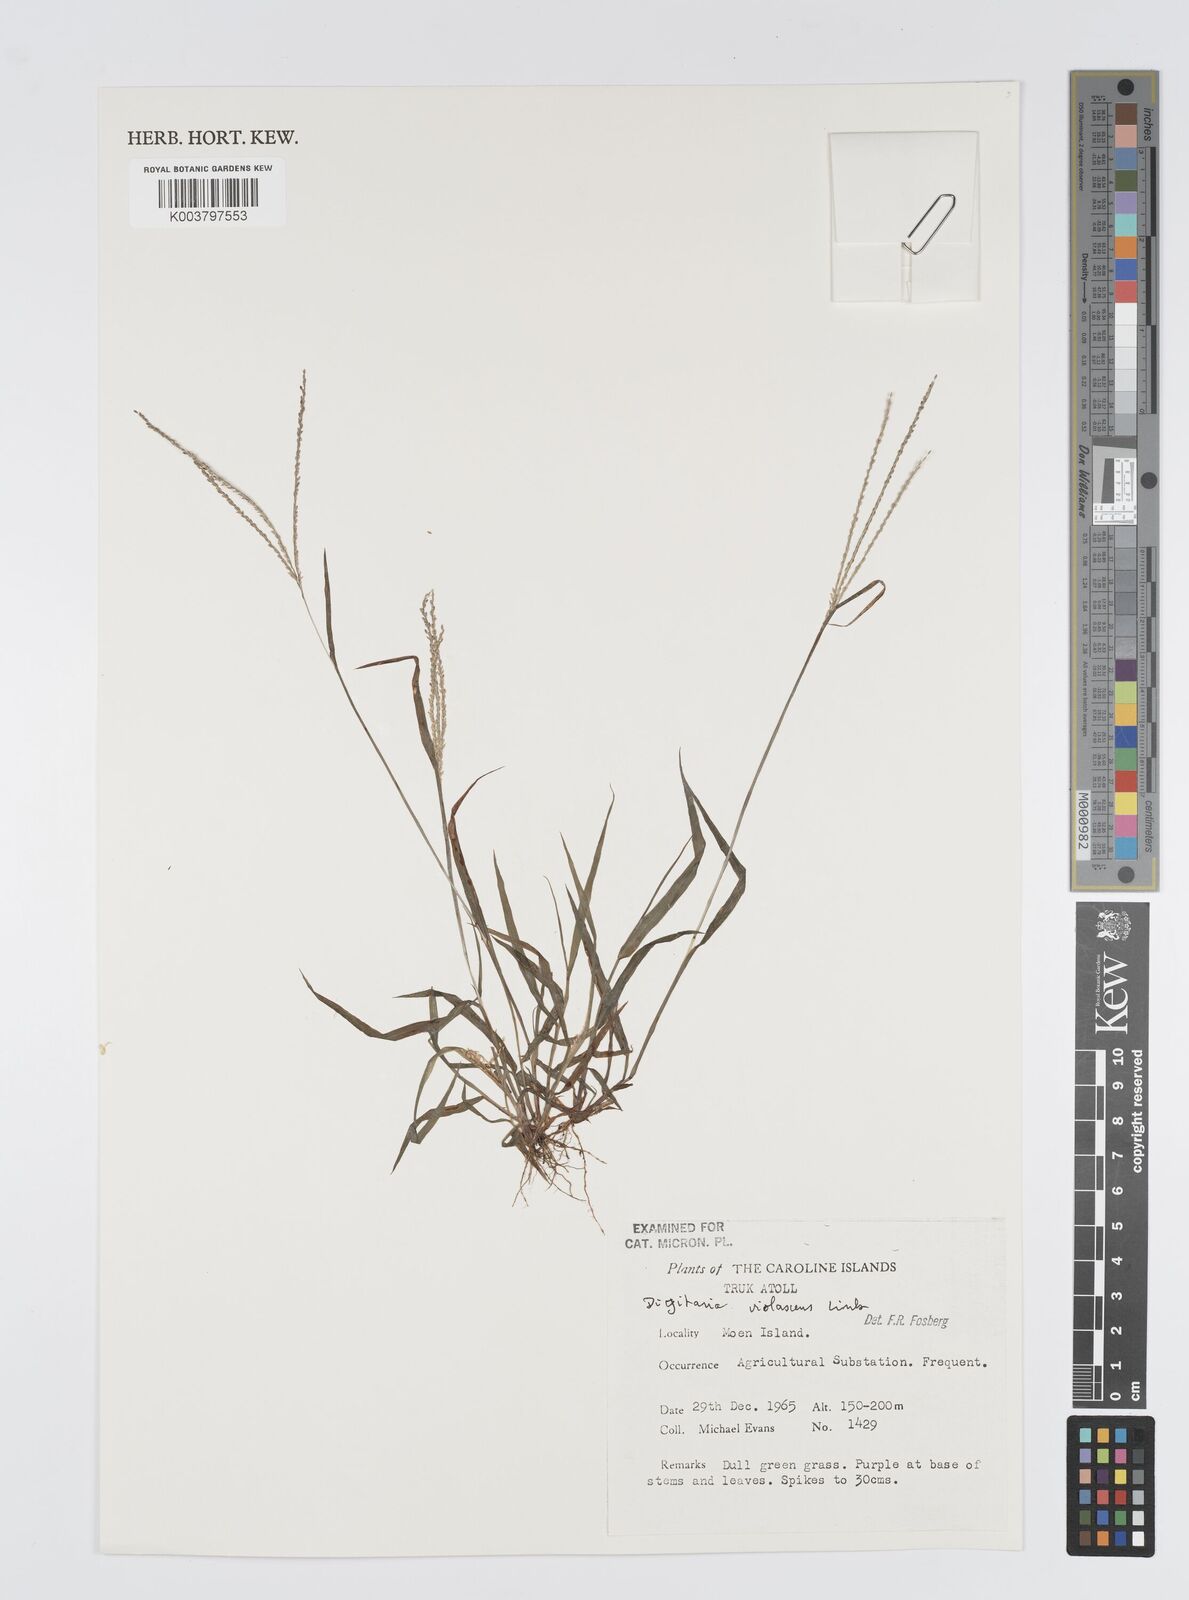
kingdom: Plantae
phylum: Tracheophyta
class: Liliopsida
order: Poales
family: Poaceae
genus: Digitaria
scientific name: Digitaria violascens
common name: Violet crabgrass
